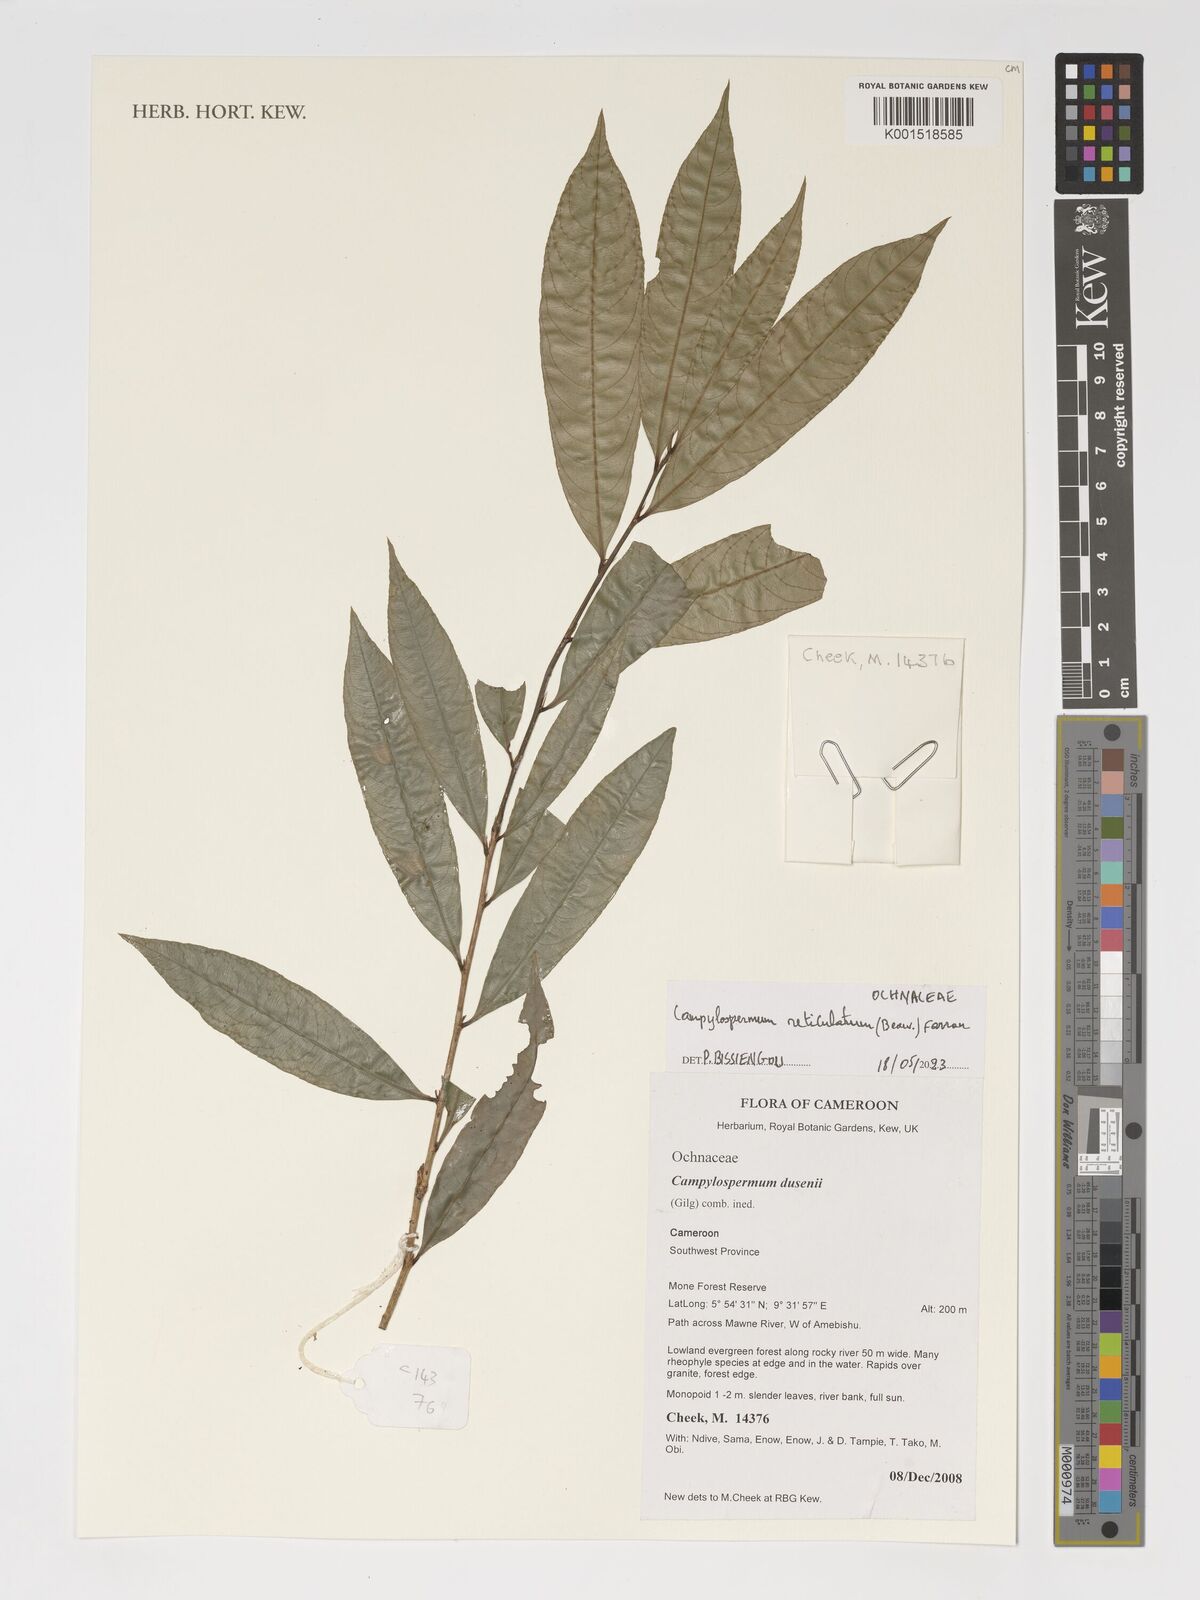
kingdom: Plantae
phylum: Tracheophyta
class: Magnoliopsida
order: Malpighiales
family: Ochnaceae
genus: Campylospermum
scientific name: Campylospermum reticulatum
